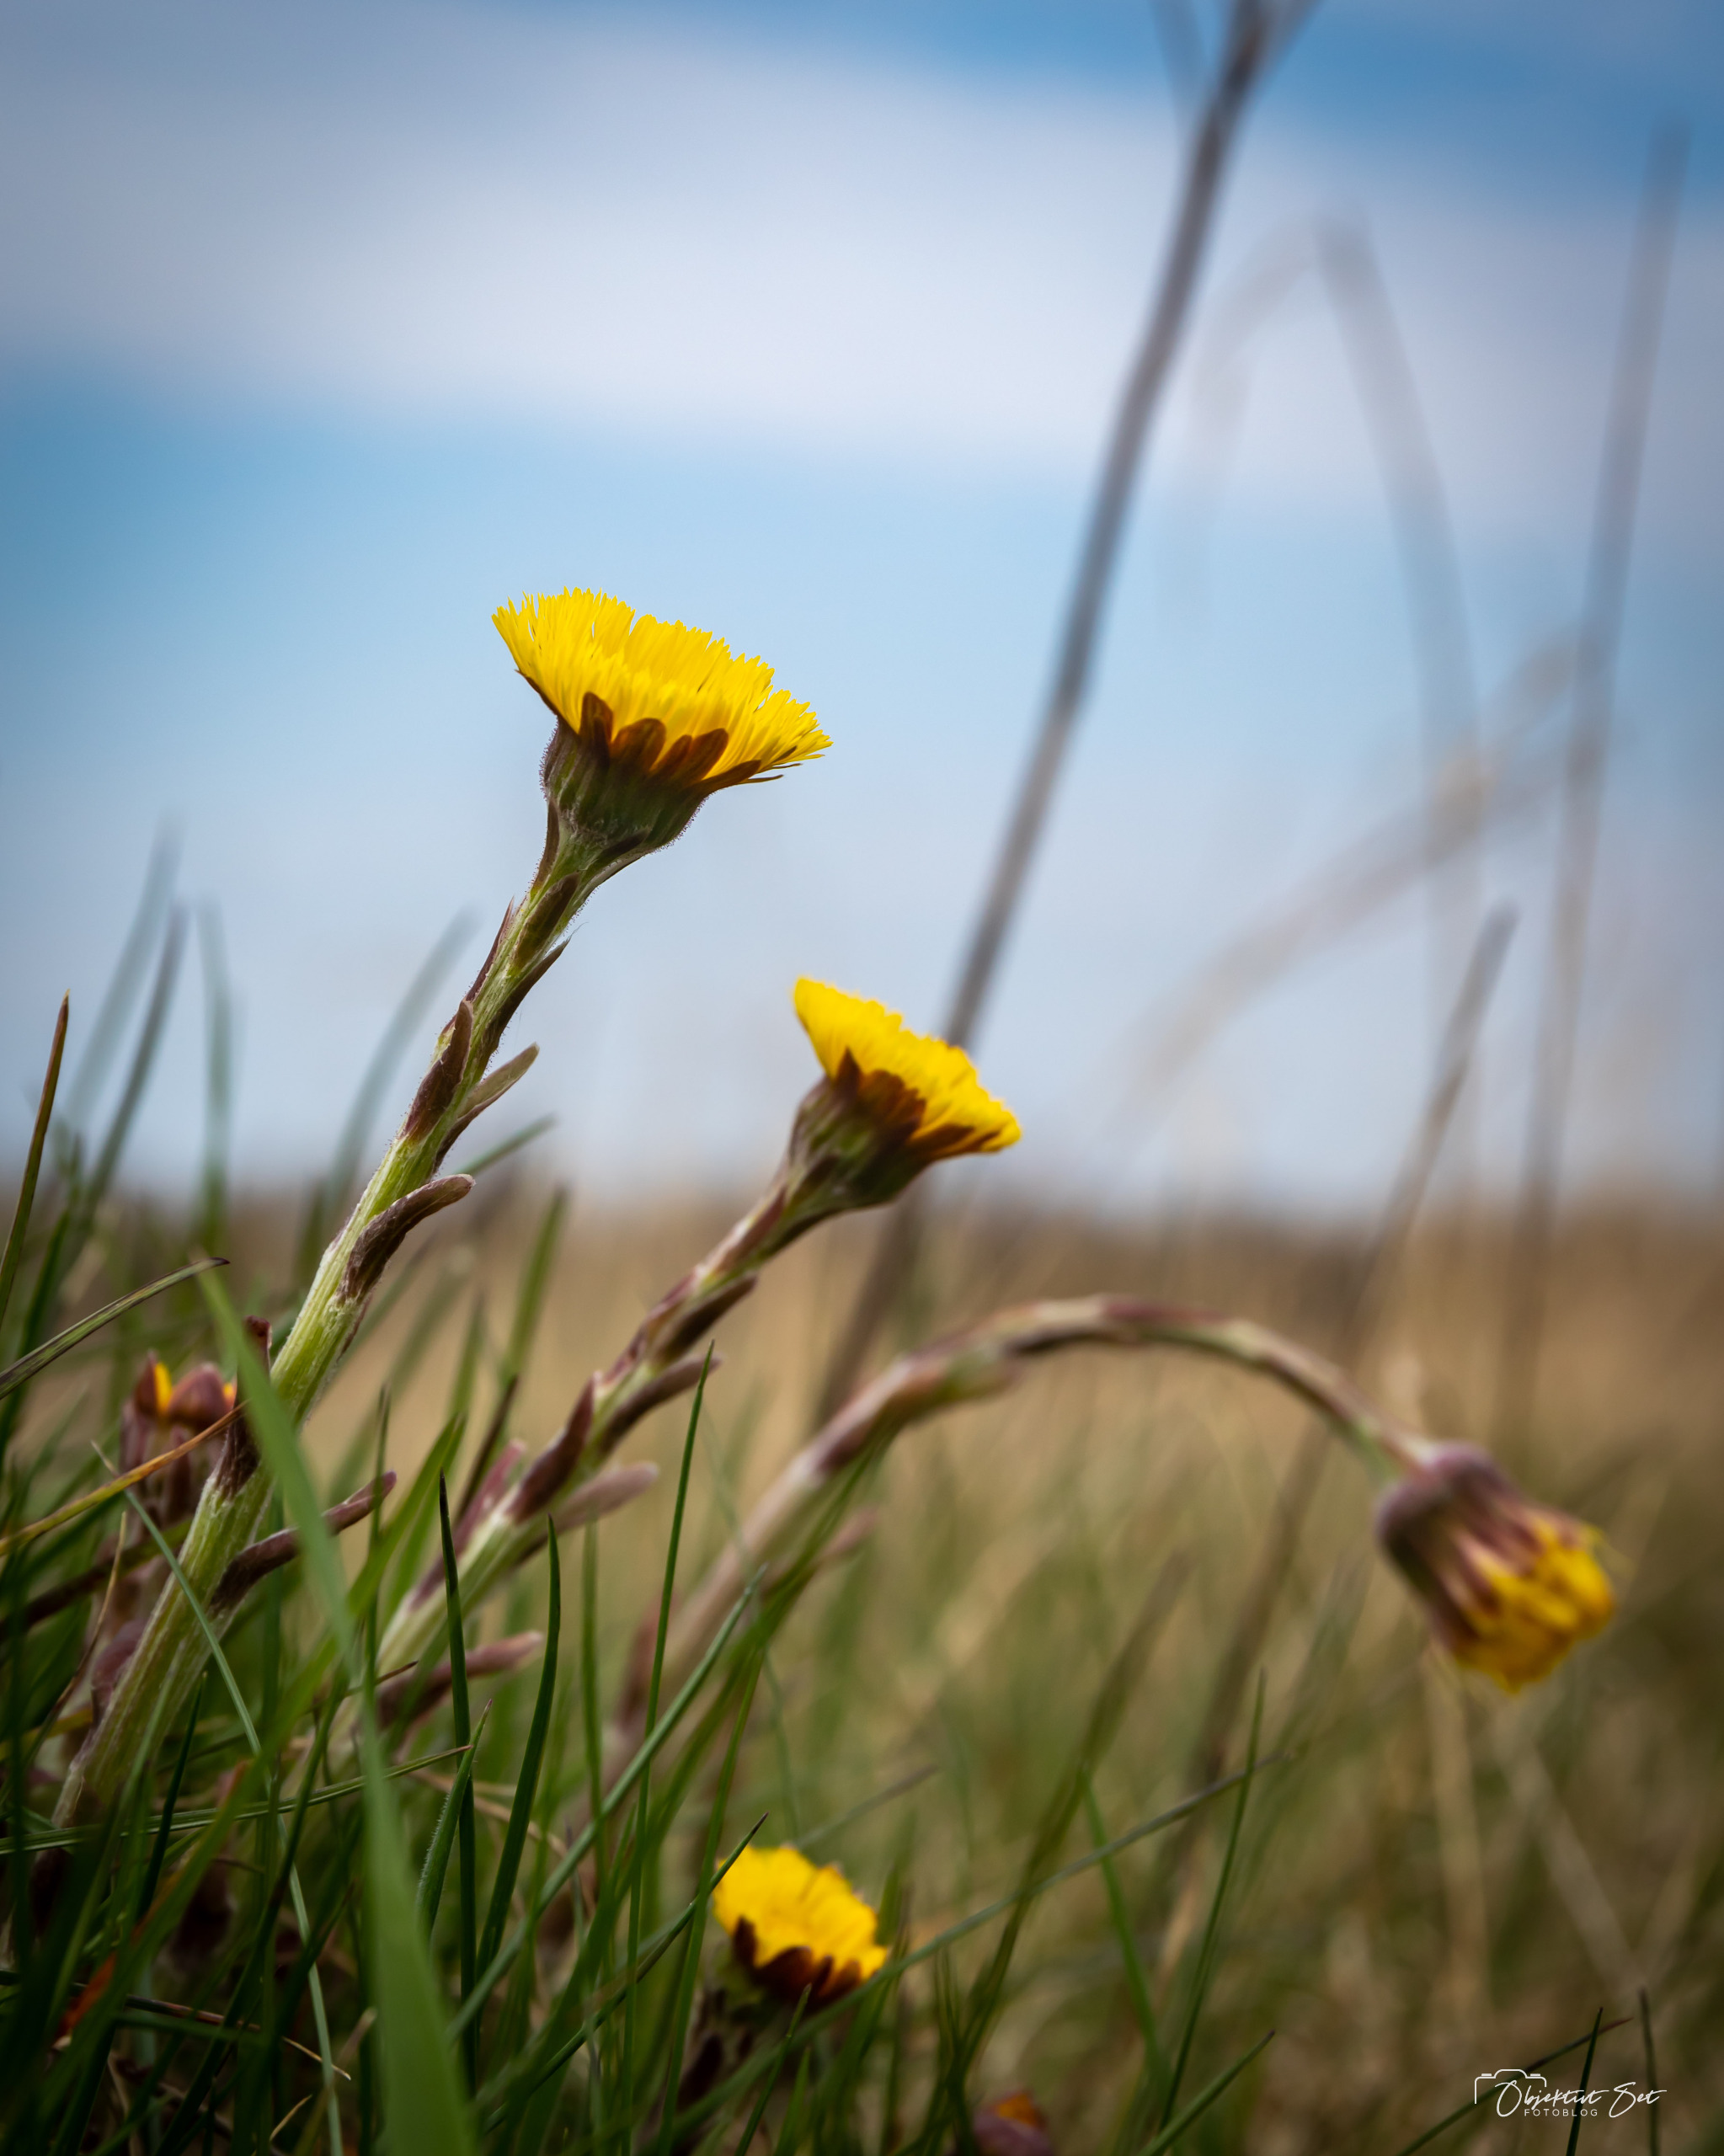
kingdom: Plantae
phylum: Tracheophyta
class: Magnoliopsida
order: Asterales
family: Asteraceae
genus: Tussilago
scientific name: Tussilago farfara
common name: Følfod
